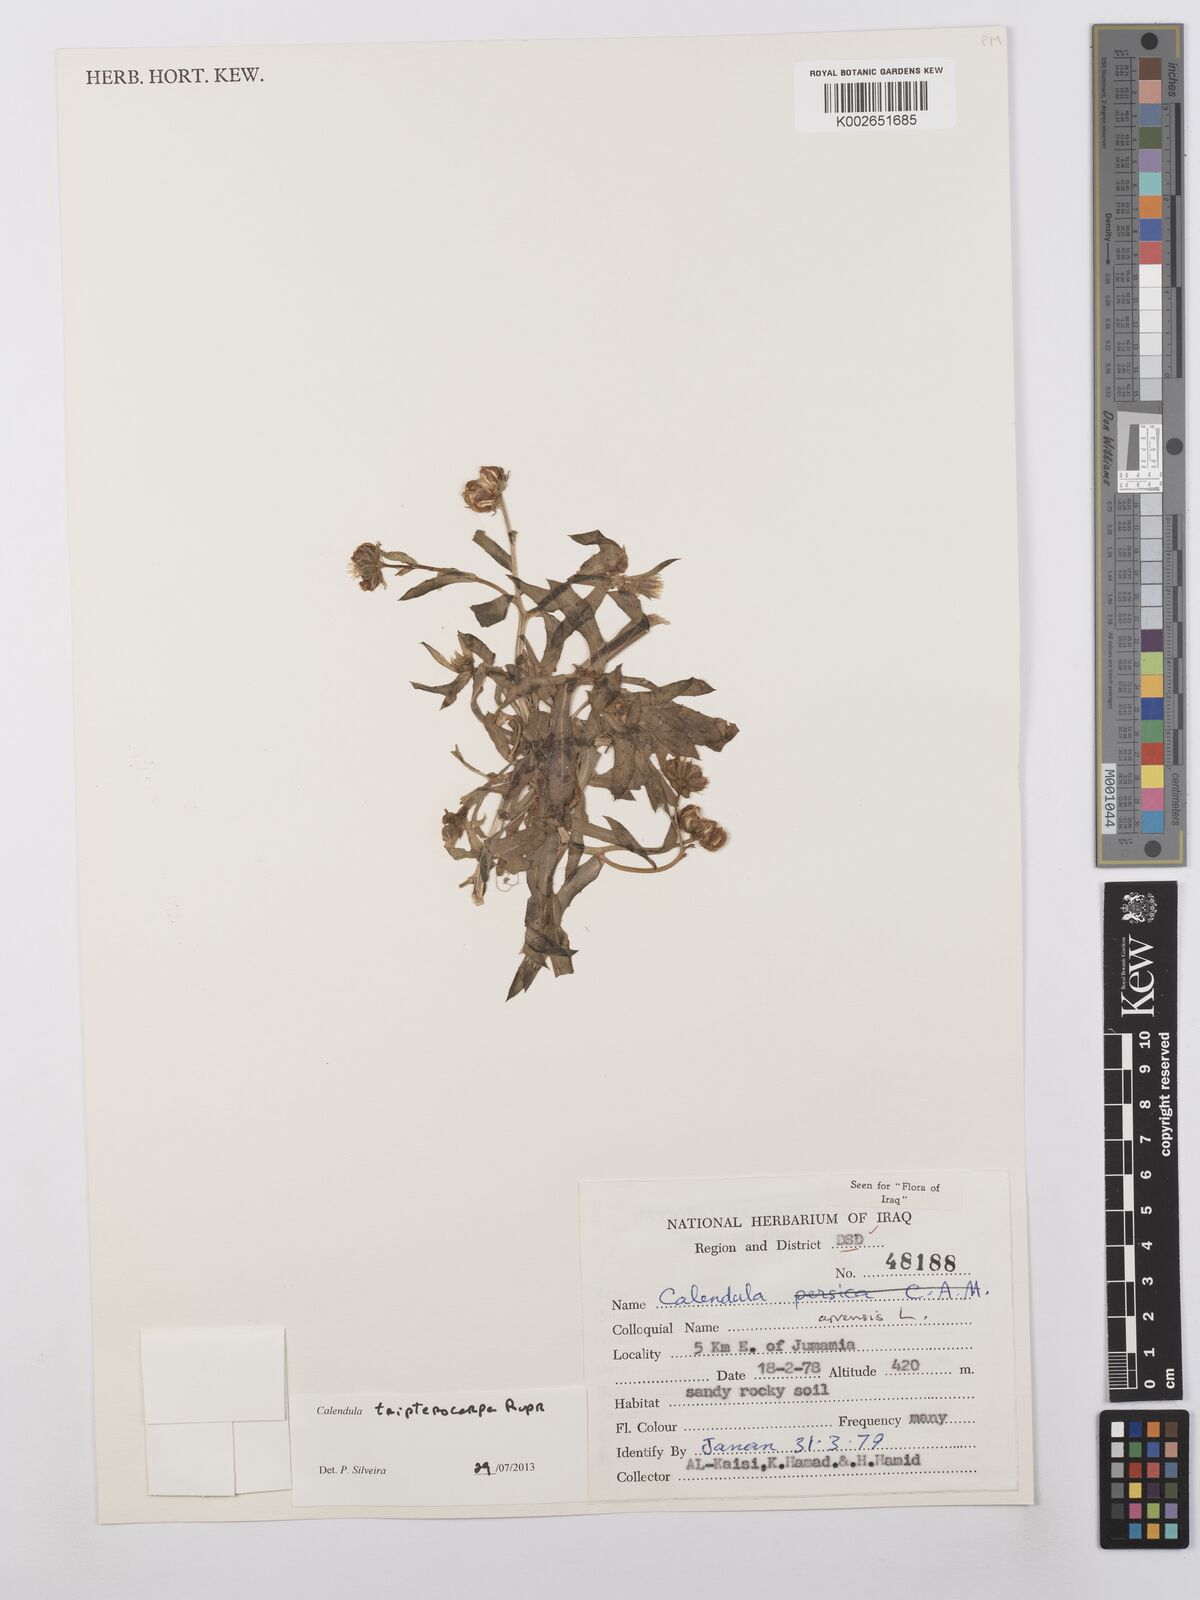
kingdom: Plantae
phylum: Tracheophyta
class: Magnoliopsida
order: Asterales
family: Asteraceae
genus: Calendula
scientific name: Calendula tripterocarpa
